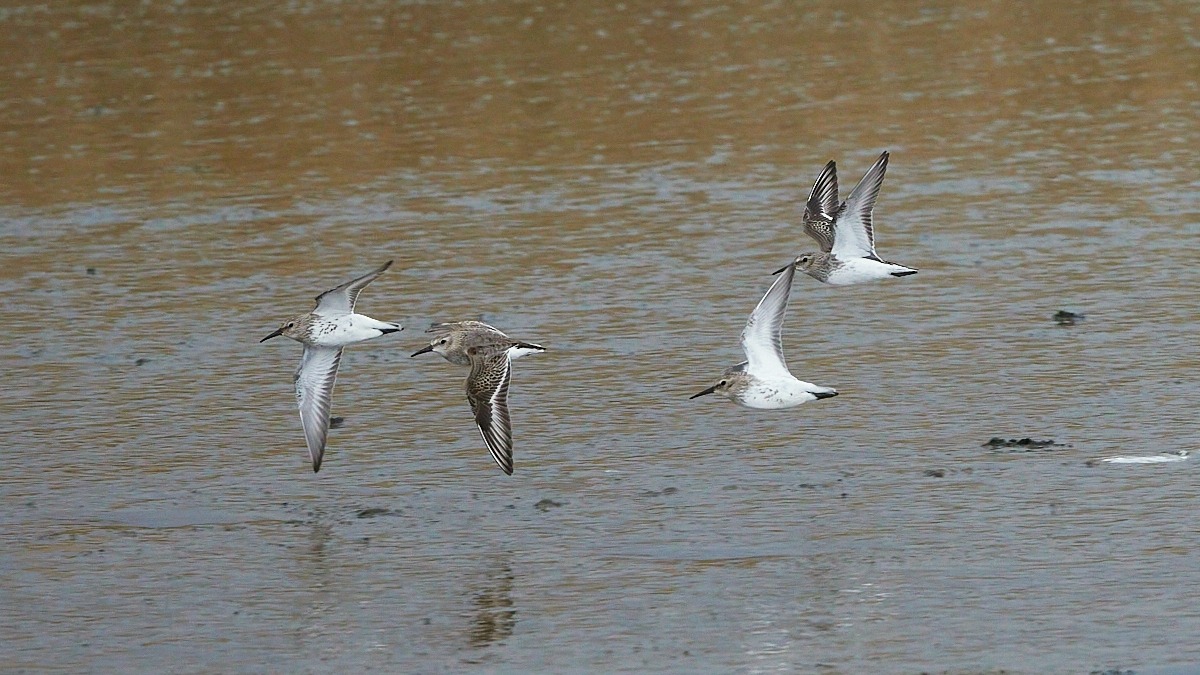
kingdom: Animalia
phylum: Chordata
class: Aves
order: Charadriiformes
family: Scolopacidae
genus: Calidris
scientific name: Calidris alpina
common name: Almindelig ryle
